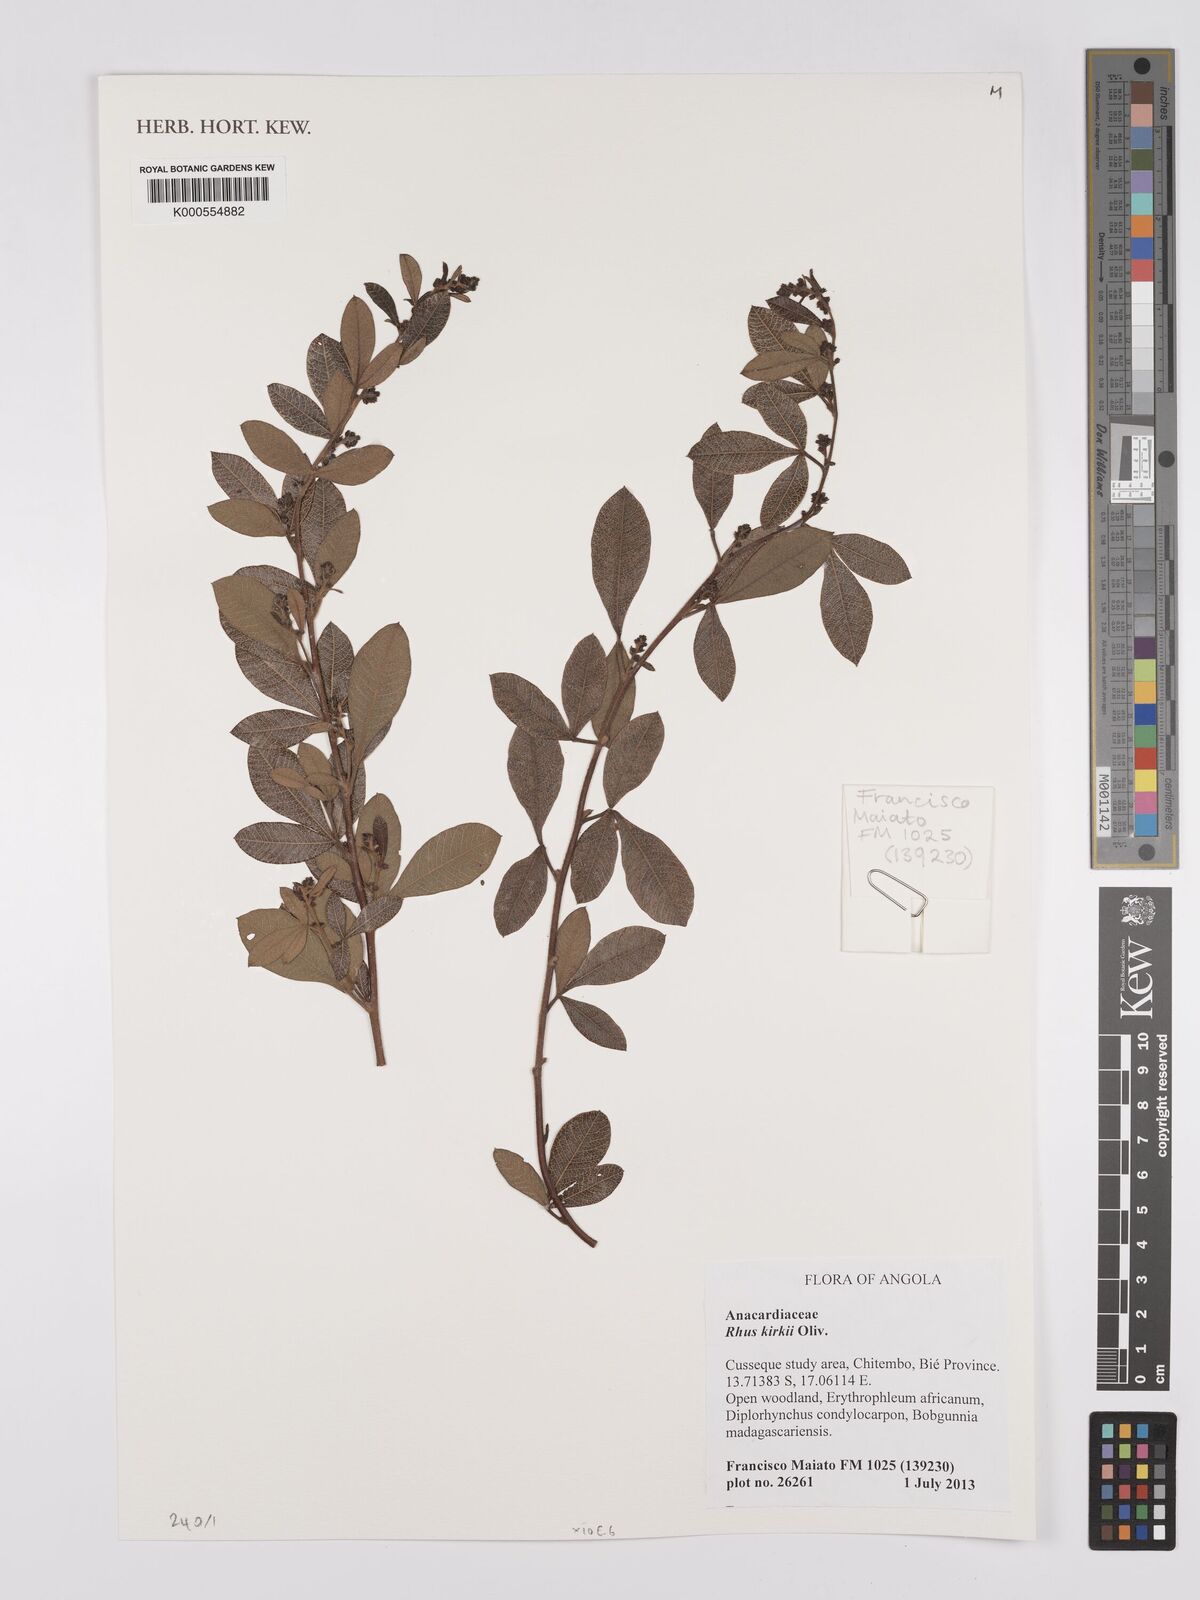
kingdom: Plantae
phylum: Tracheophyta
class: Magnoliopsida
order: Sapindales
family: Anacardiaceae
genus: Searsia
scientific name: Searsia kirkii
